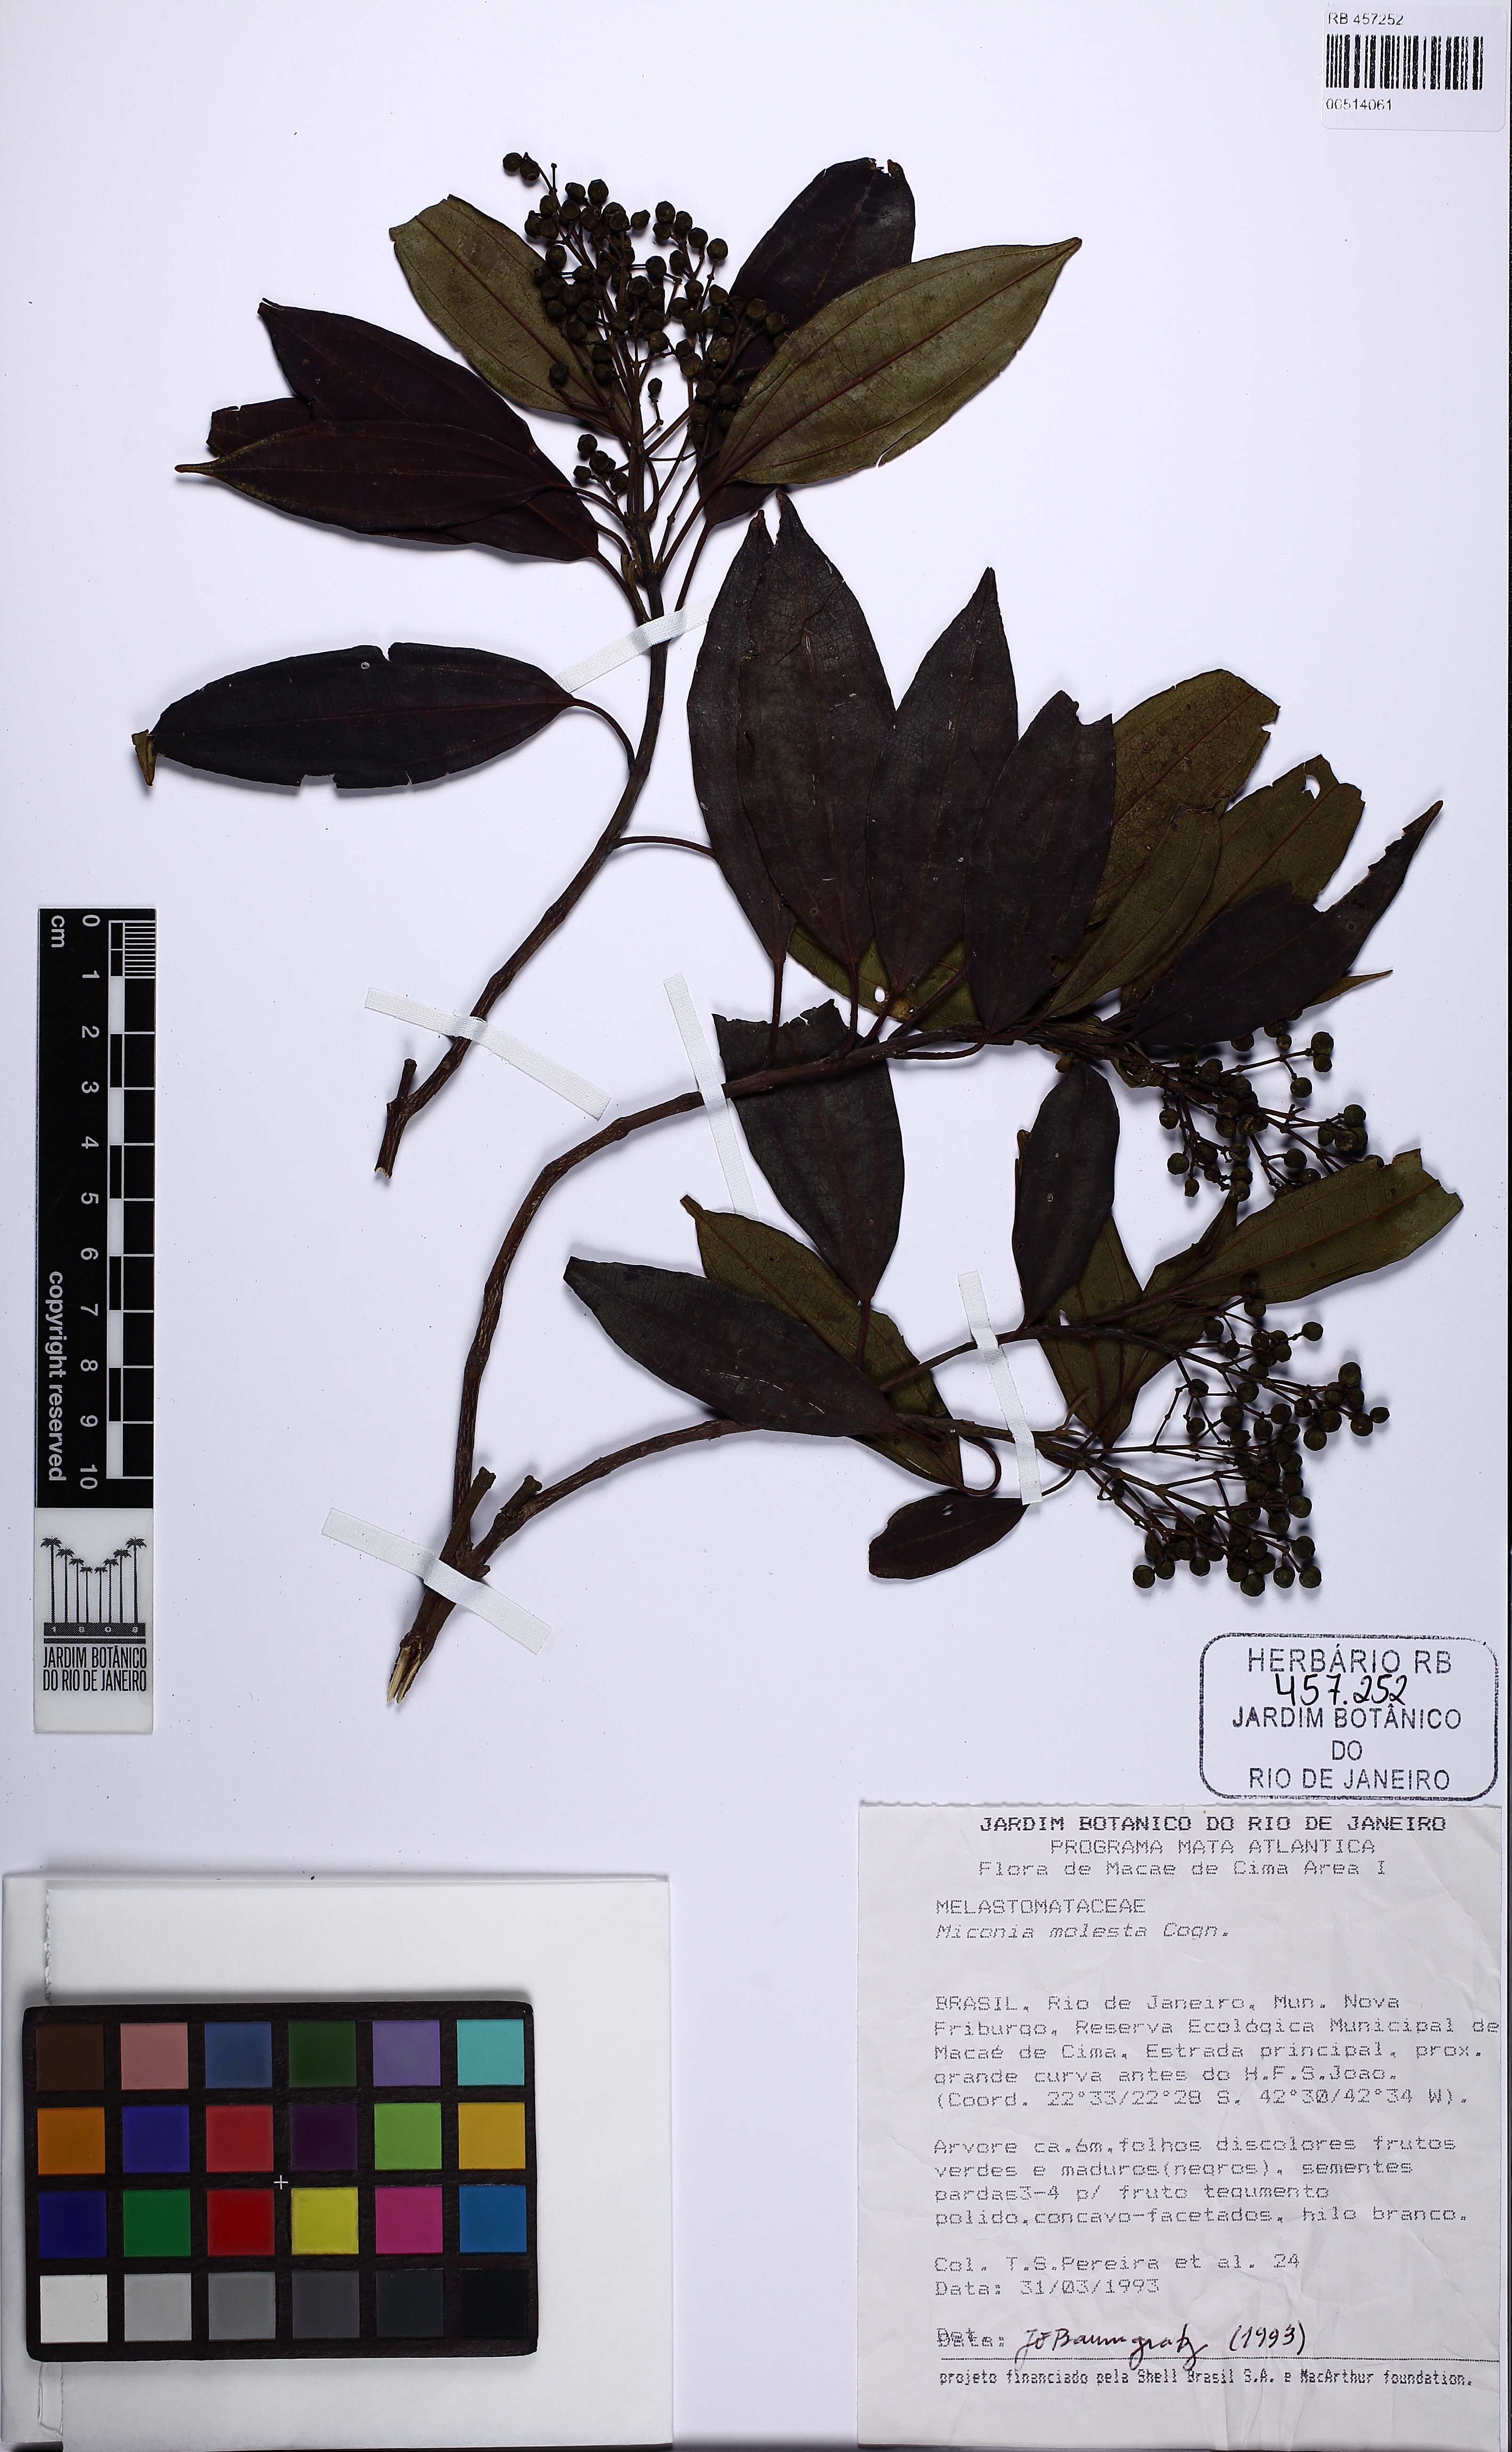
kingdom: Plantae
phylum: Tracheophyta
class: Magnoliopsida
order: Myrtales
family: Melastomataceae
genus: Miconia
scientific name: Miconia molesta
